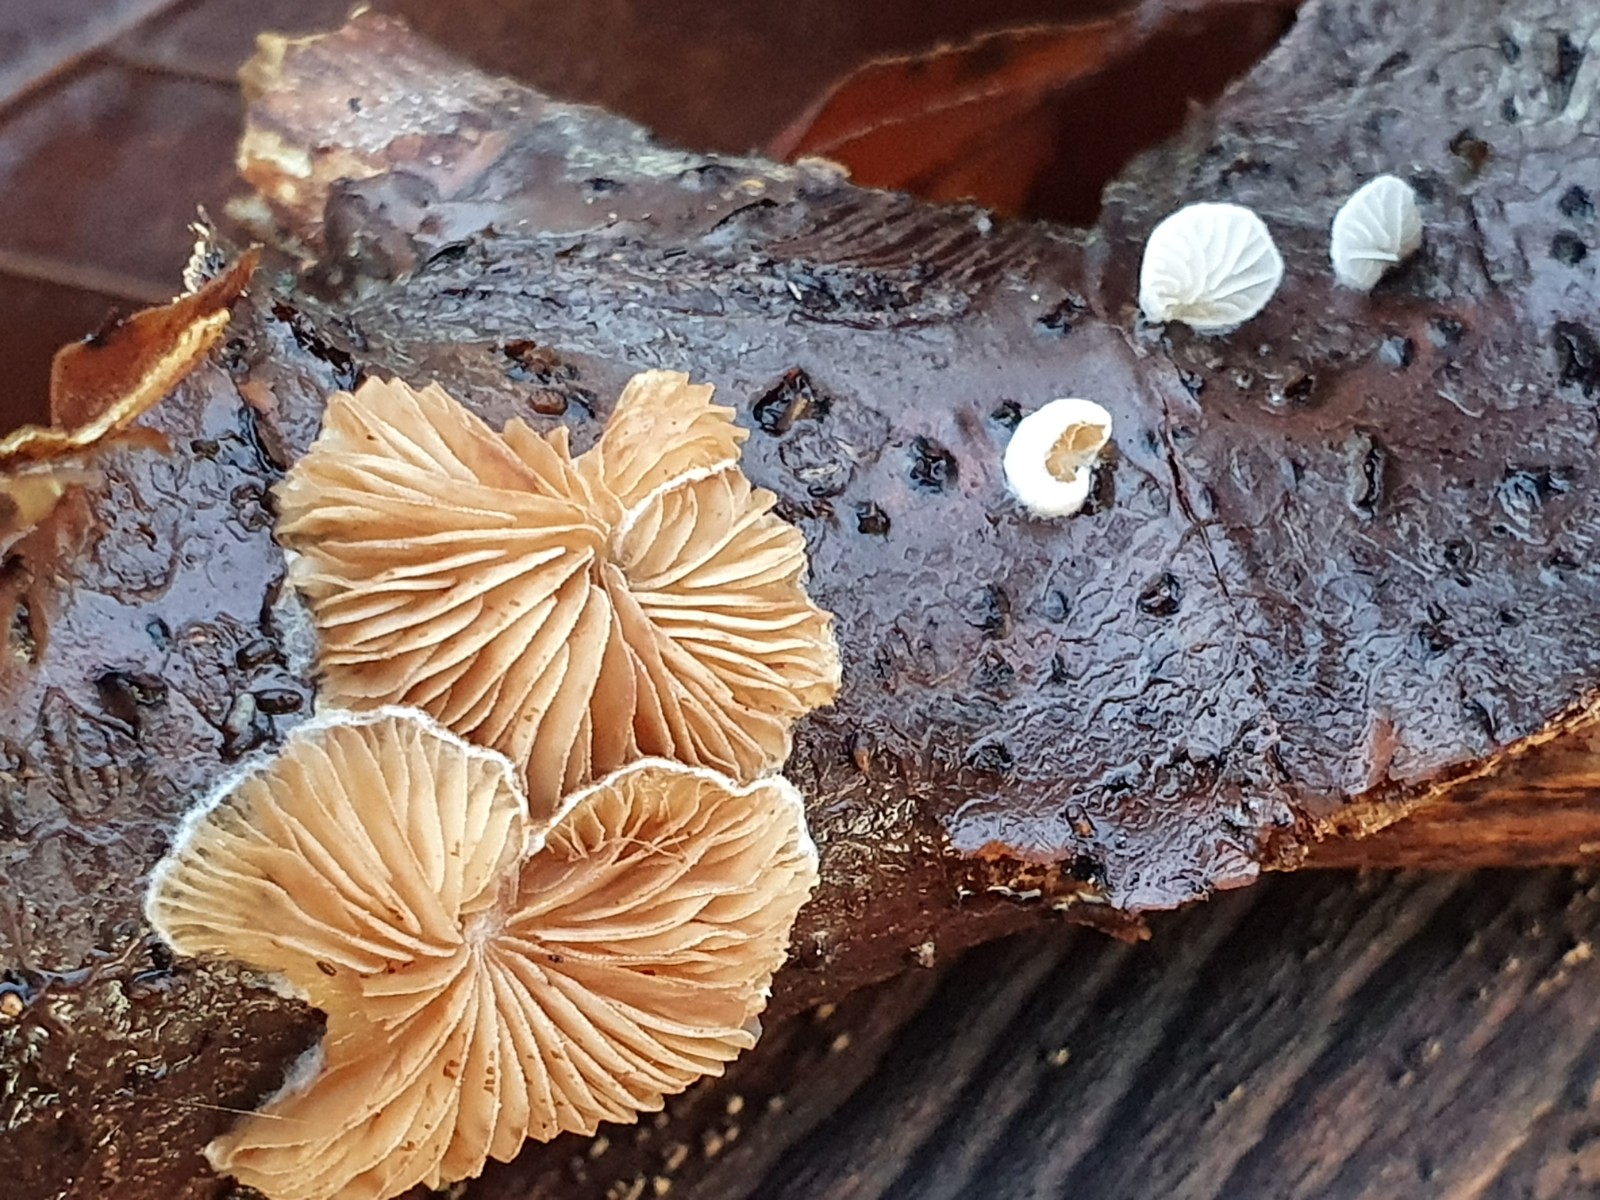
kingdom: Fungi
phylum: Basidiomycota
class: Agaricomycetes
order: Agaricales
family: Crepidotaceae
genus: Crepidotus
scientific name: Crepidotus
